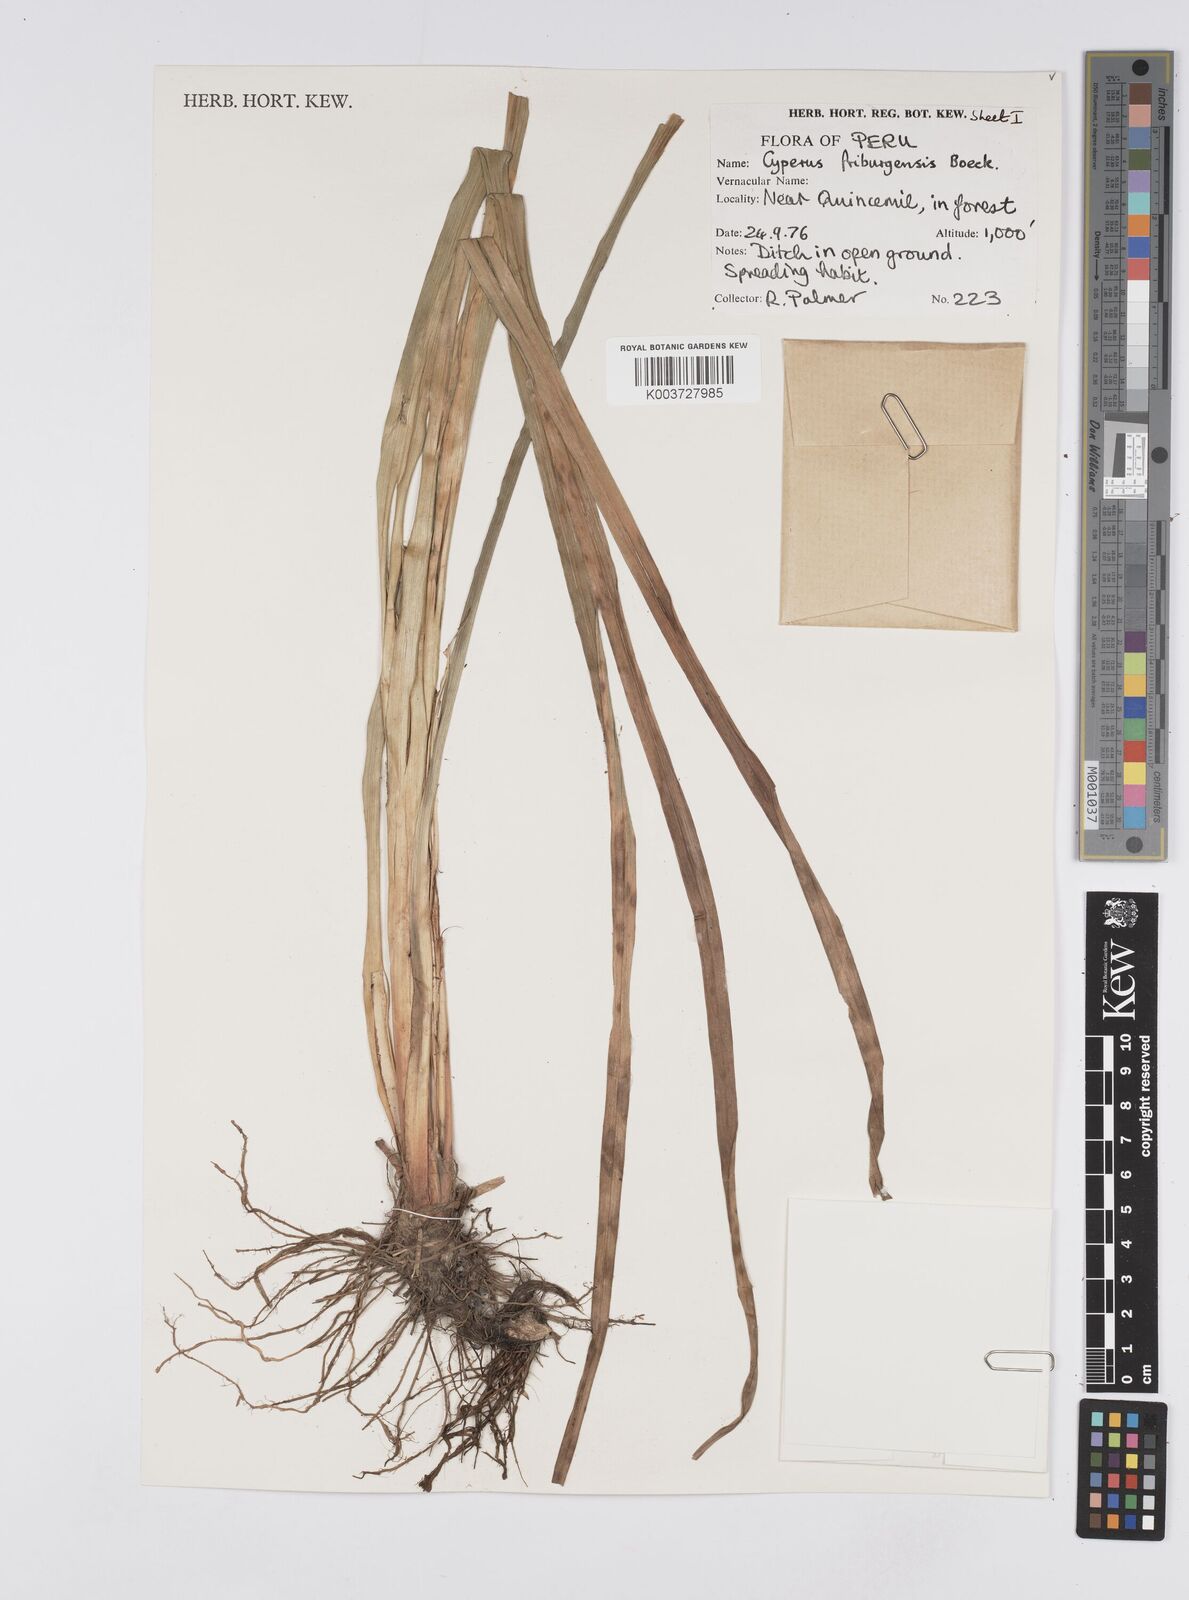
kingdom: Plantae
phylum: Tracheophyta
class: Liliopsida
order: Poales
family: Cyperaceae
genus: Cyperus
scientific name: Cyperus friburgensis
